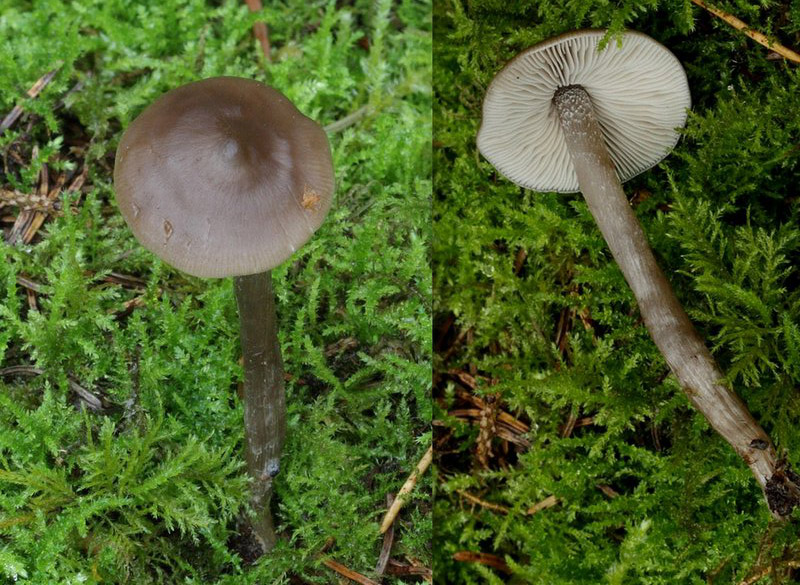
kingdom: Fungi
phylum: Basidiomycota
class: Agaricomycetes
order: Agaricales
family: Lyophyllaceae
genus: Myochromella
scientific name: Myochromella boudieri
